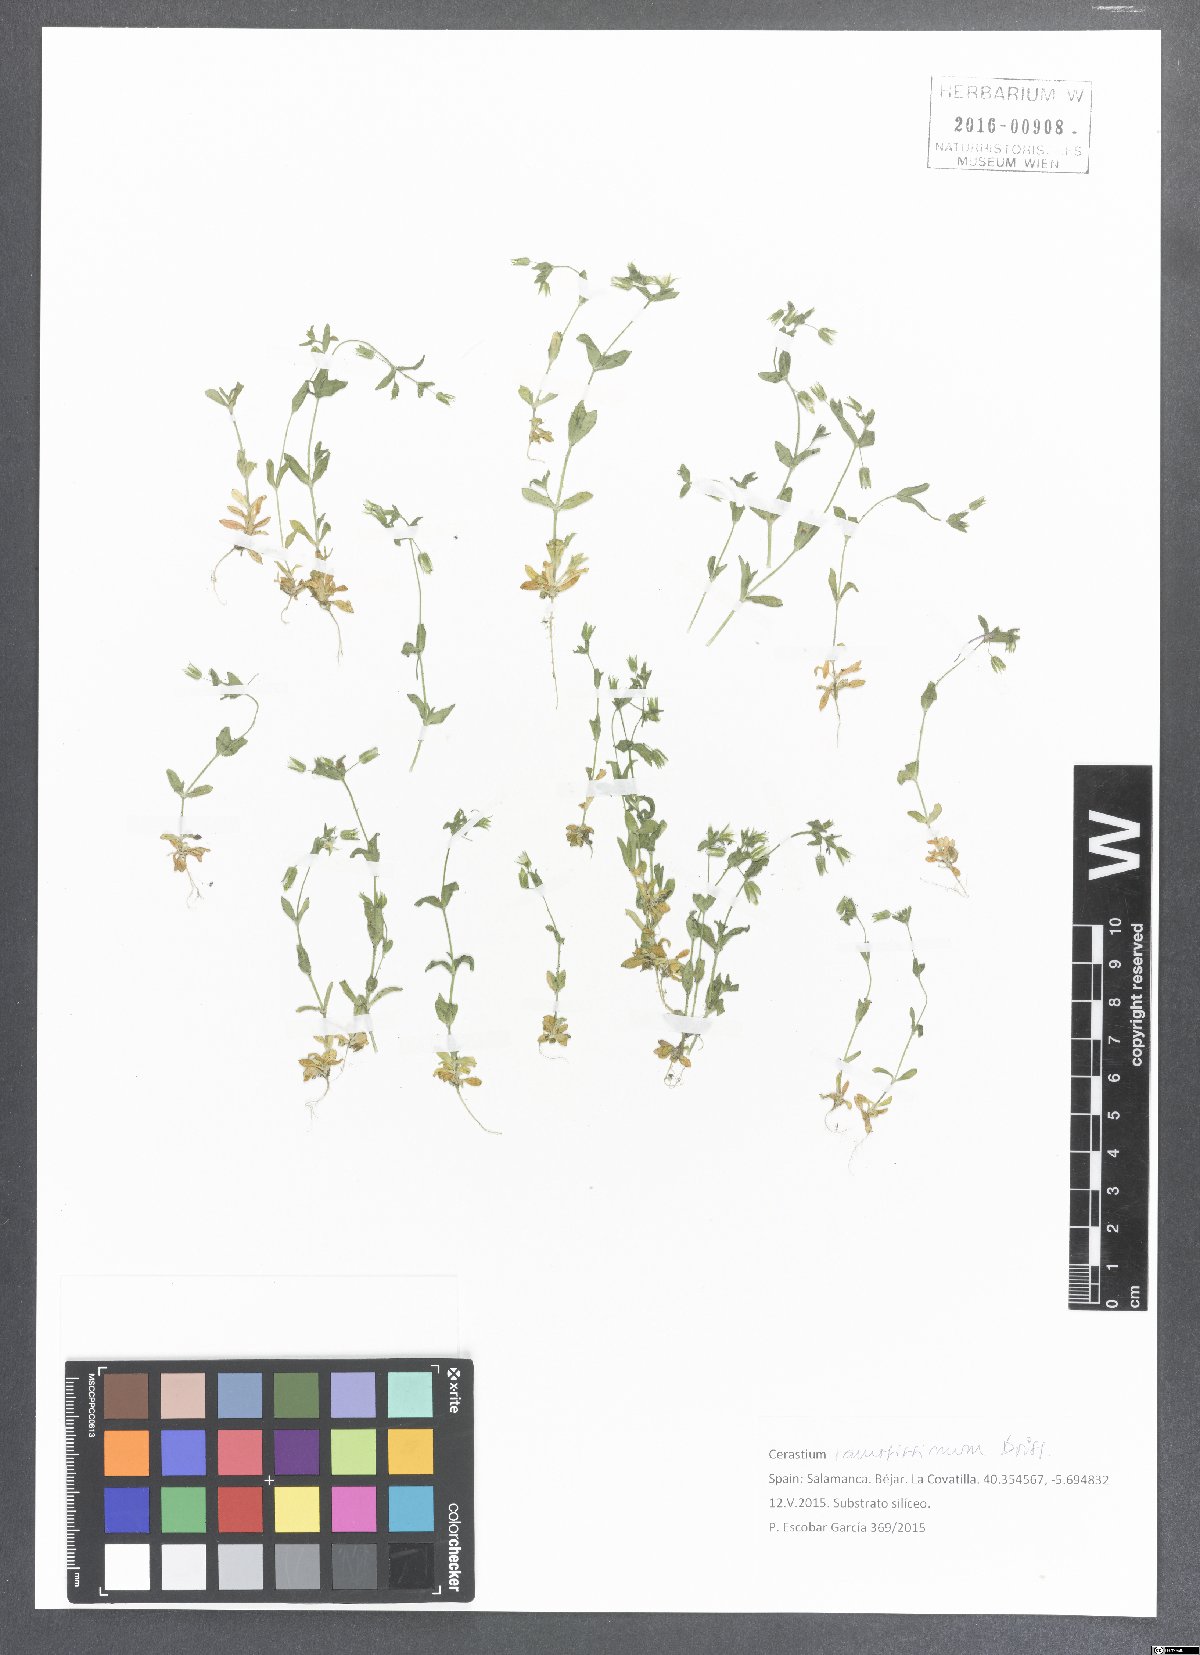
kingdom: Plantae
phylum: Tracheophyta
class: Magnoliopsida
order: Caryophyllales
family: Caryophyllaceae
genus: Cerastium
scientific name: Cerastium ramosissimum
